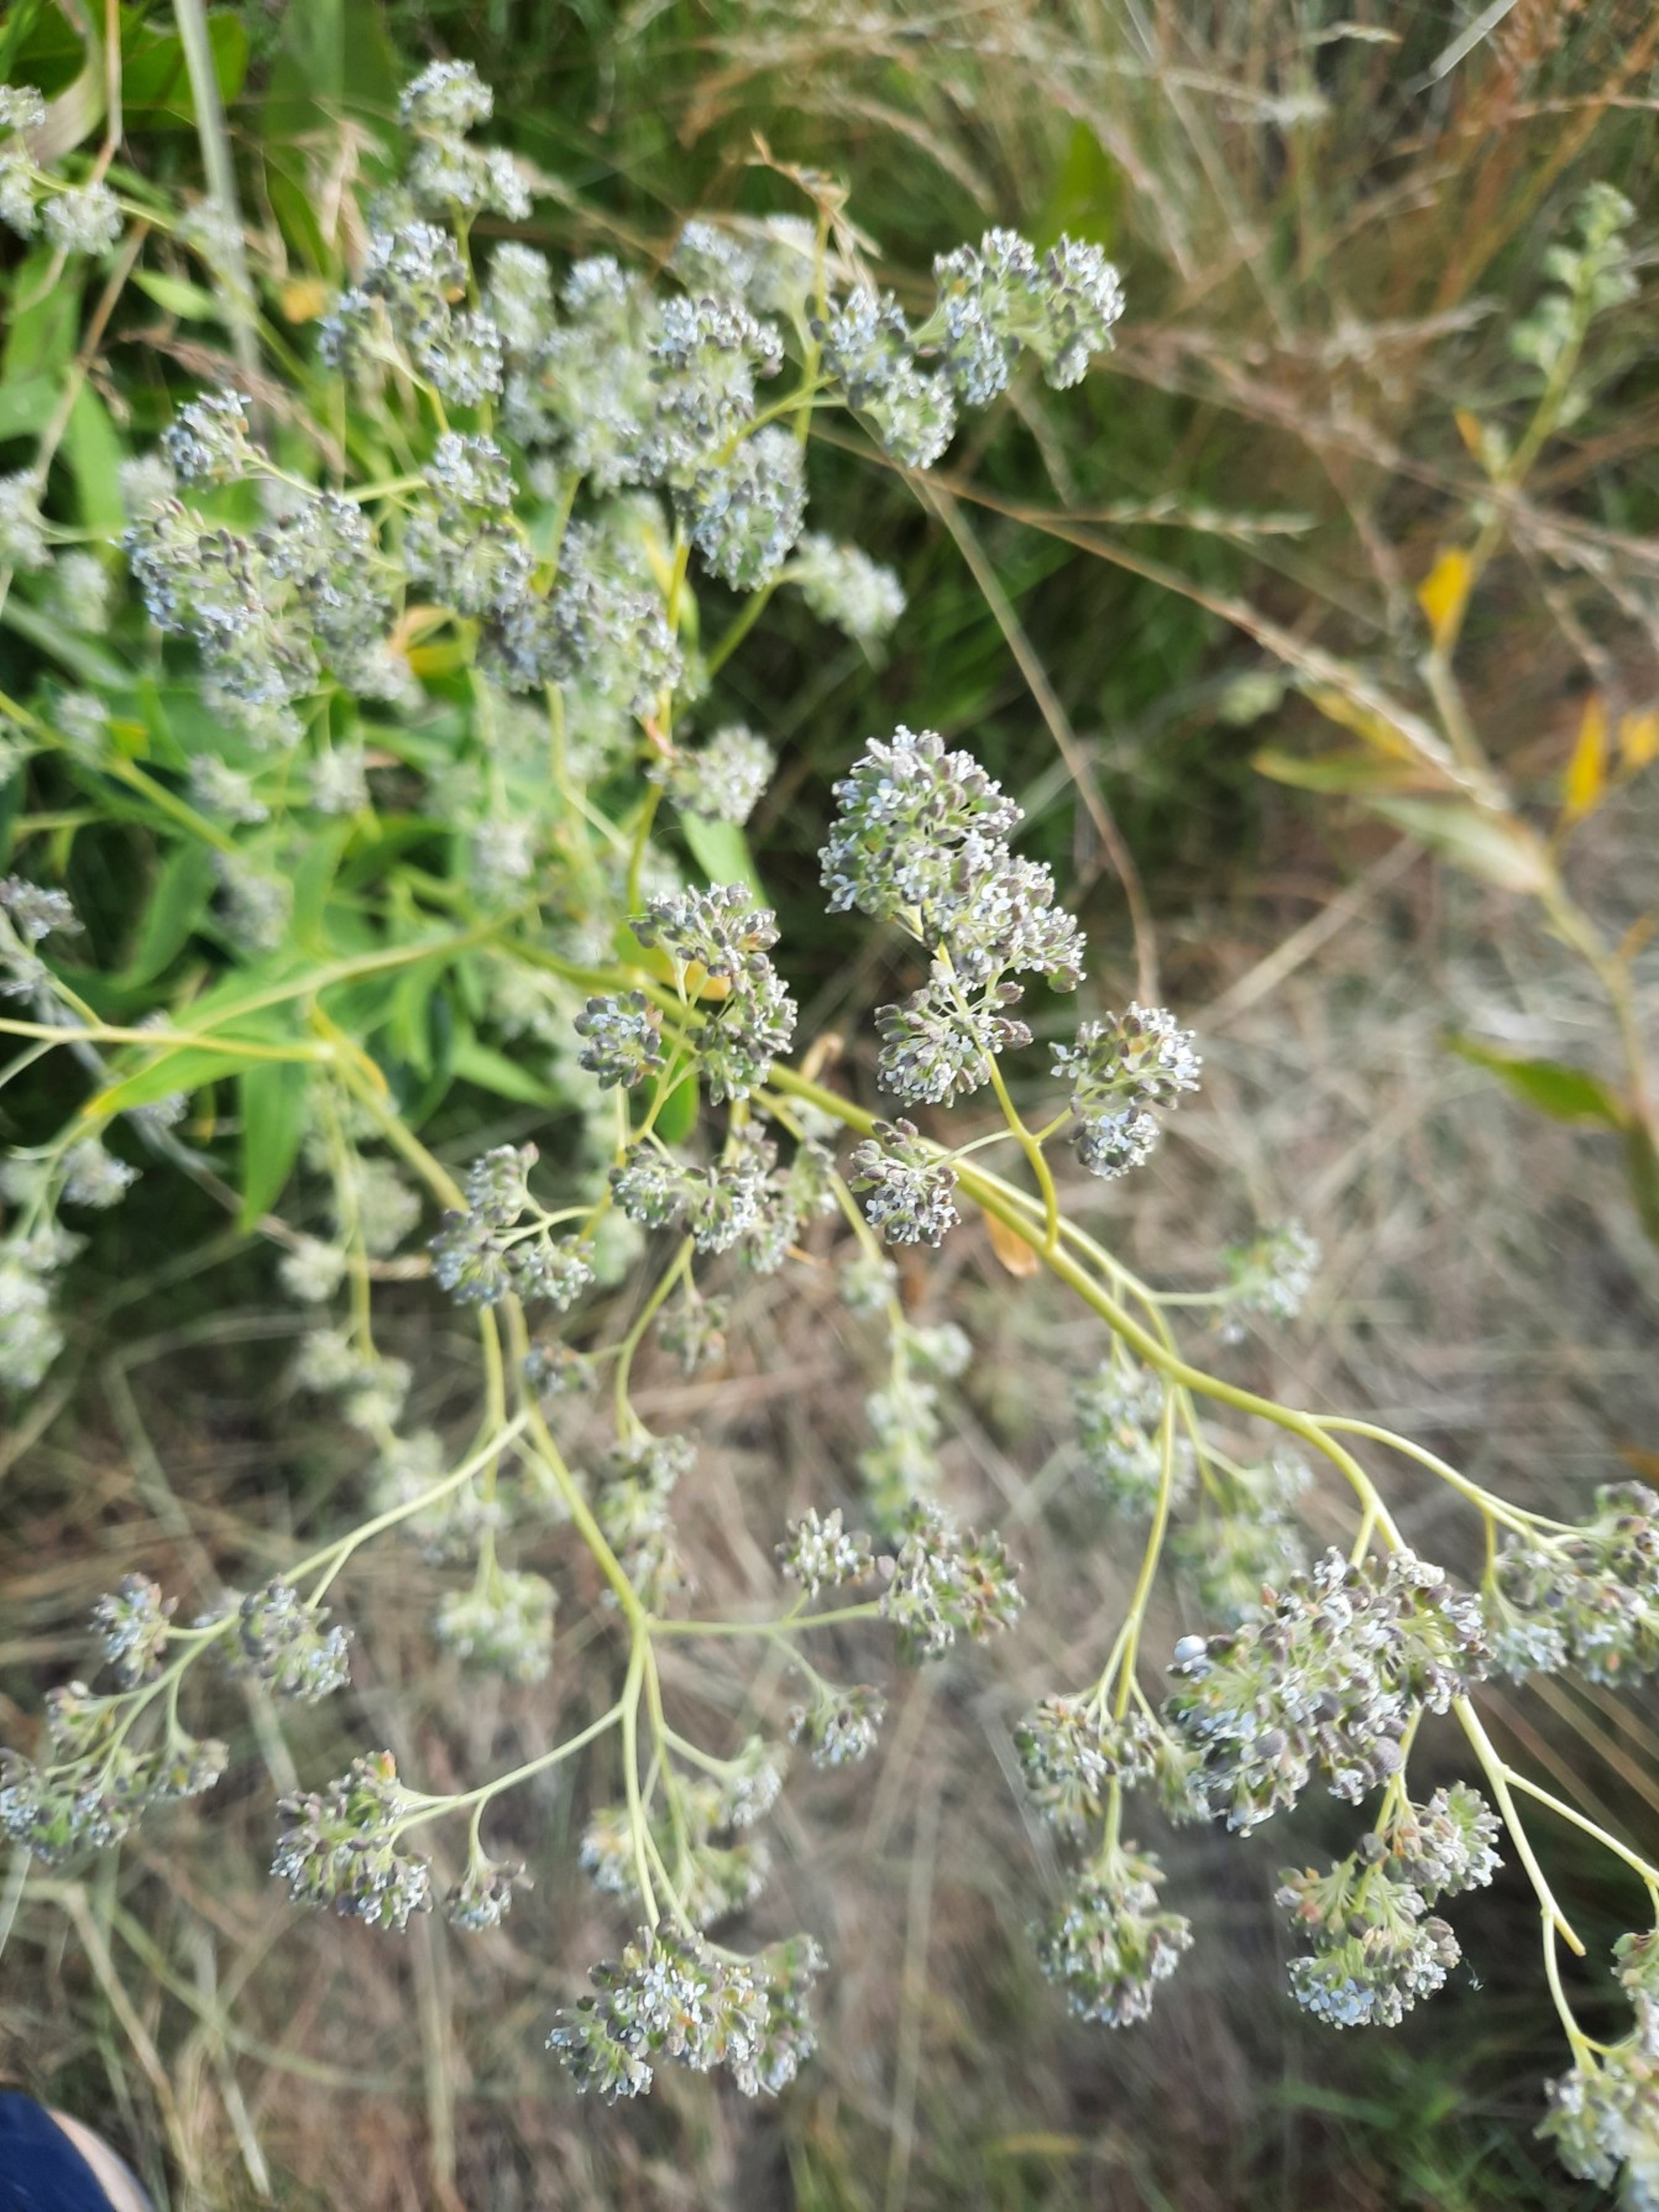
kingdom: Plantae
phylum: Tracheophyta
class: Magnoliopsida
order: Brassicales
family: Brassicaceae
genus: Lepidium
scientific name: Lepidium latifolium
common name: Strand-karse
